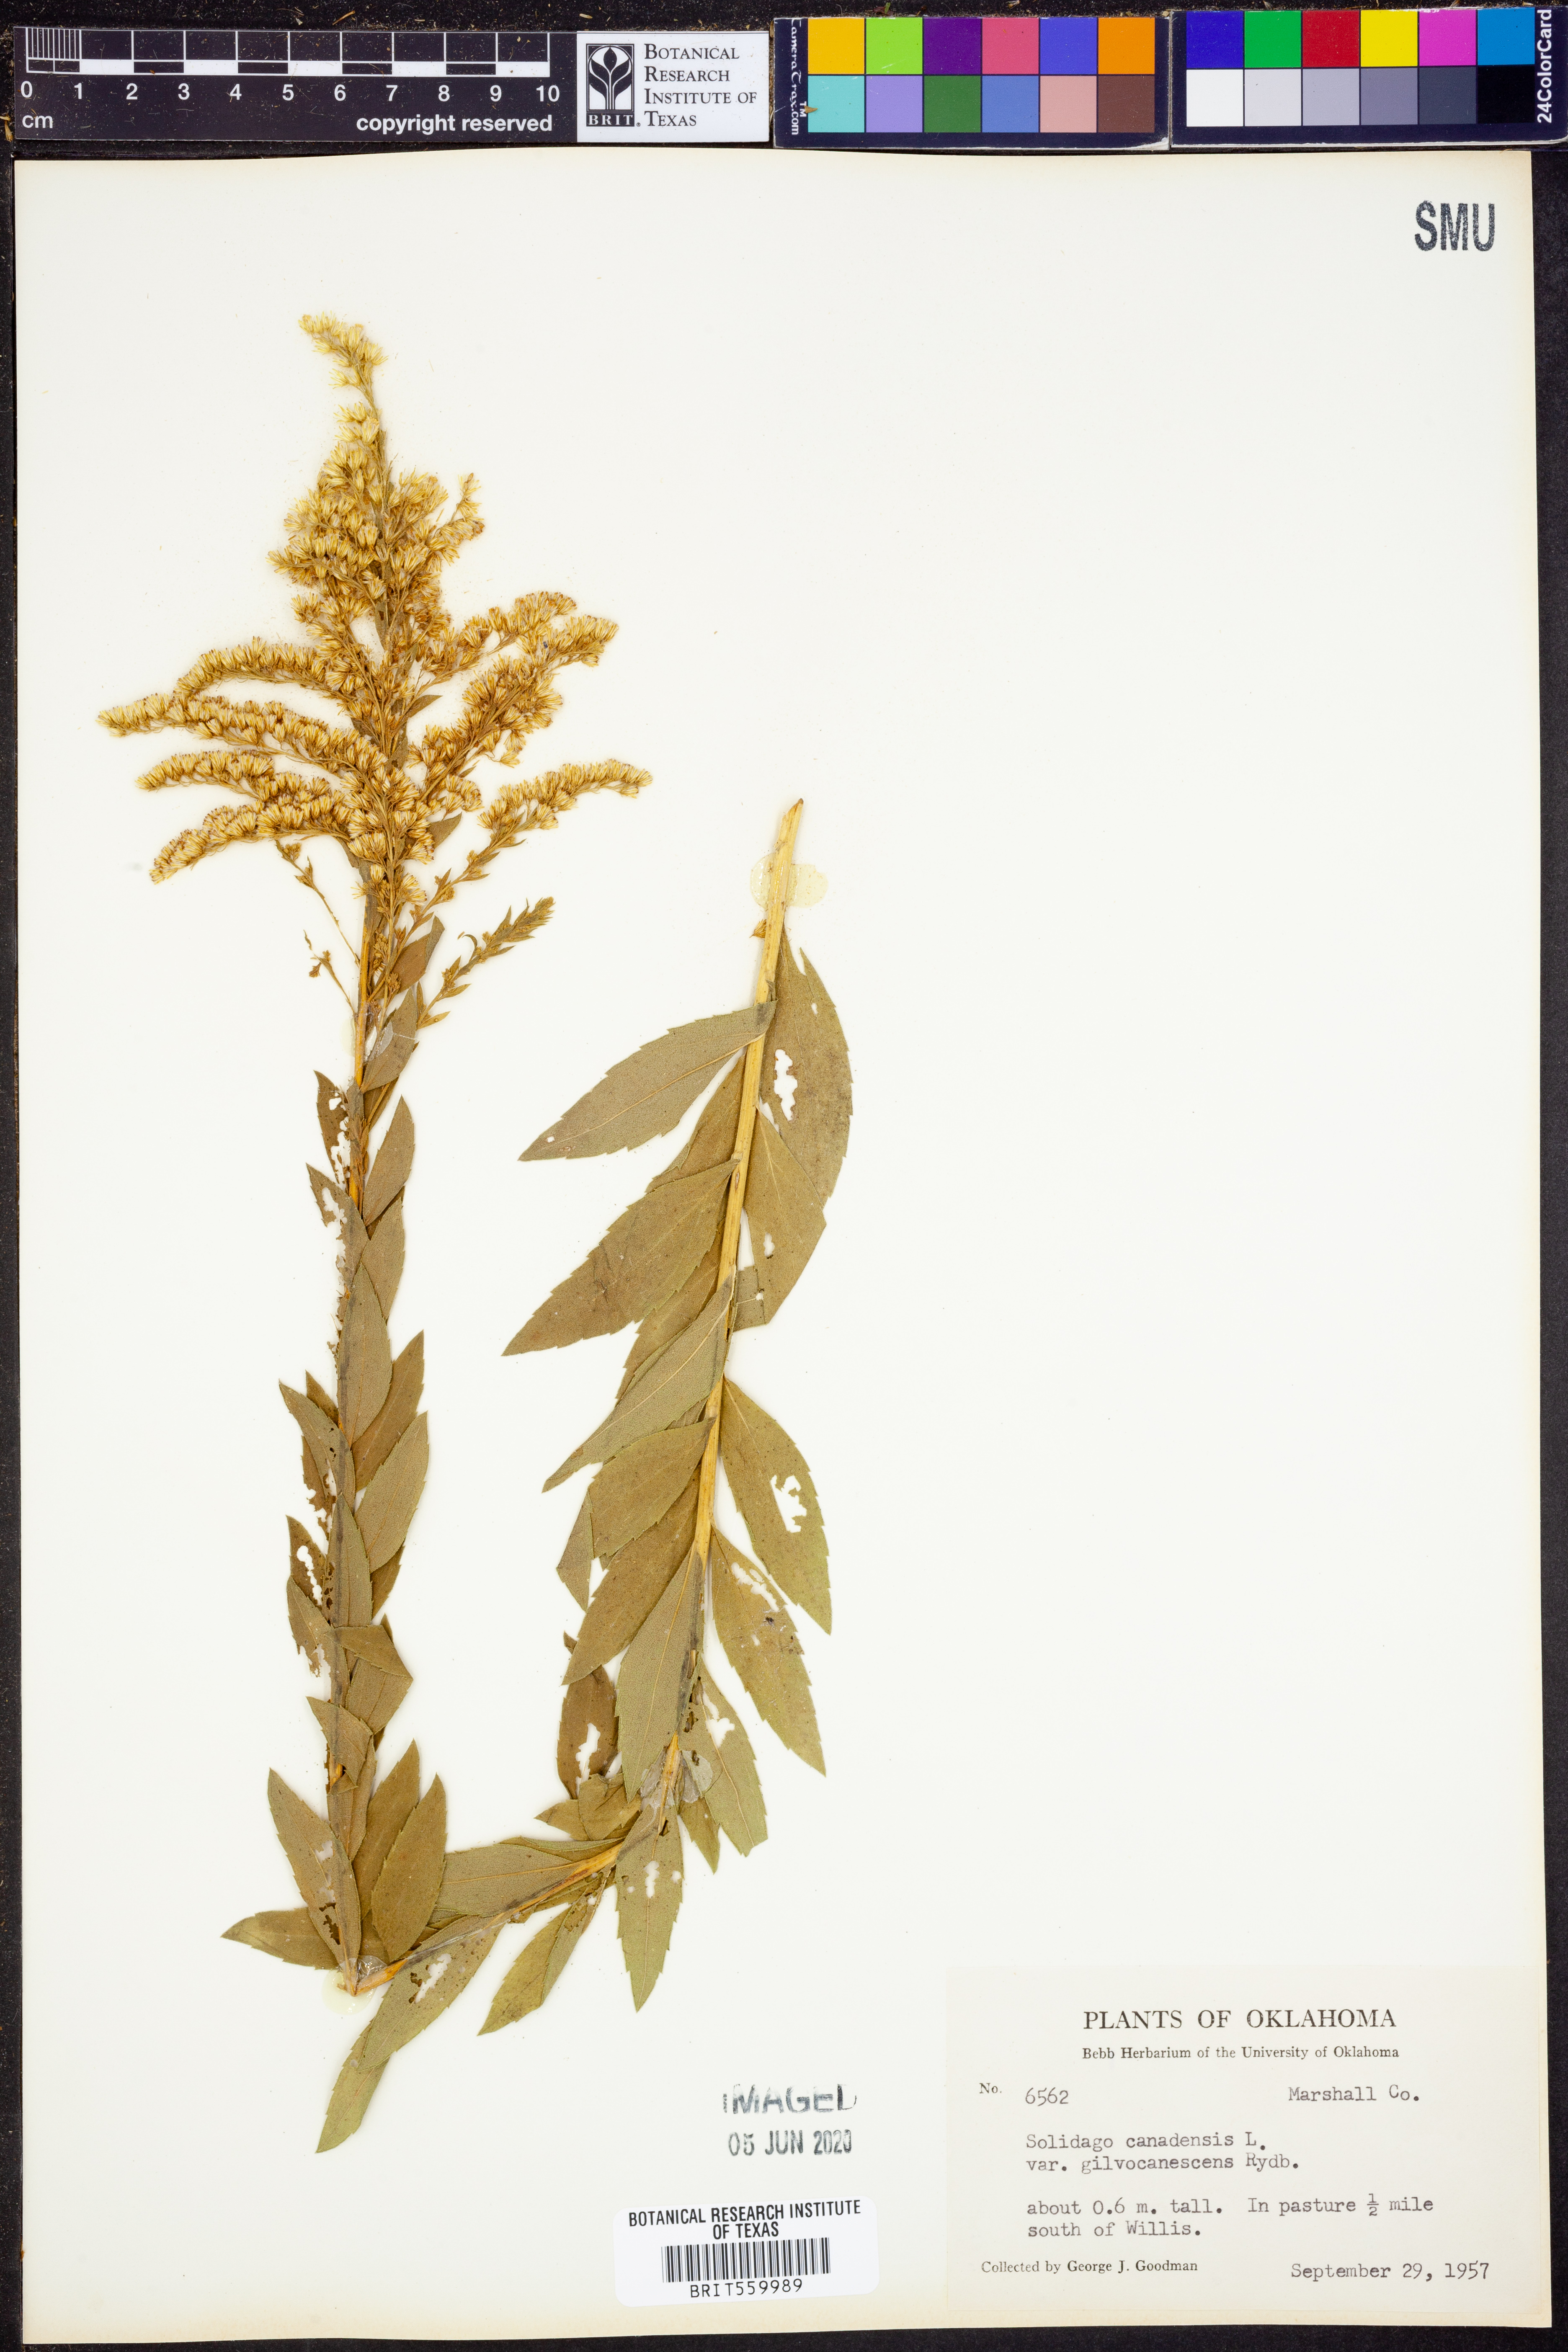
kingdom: Plantae
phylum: Tracheophyta
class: Magnoliopsida
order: Asterales
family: Asteraceae
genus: Solidago
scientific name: Solidago altissima
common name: Late goldenrod
